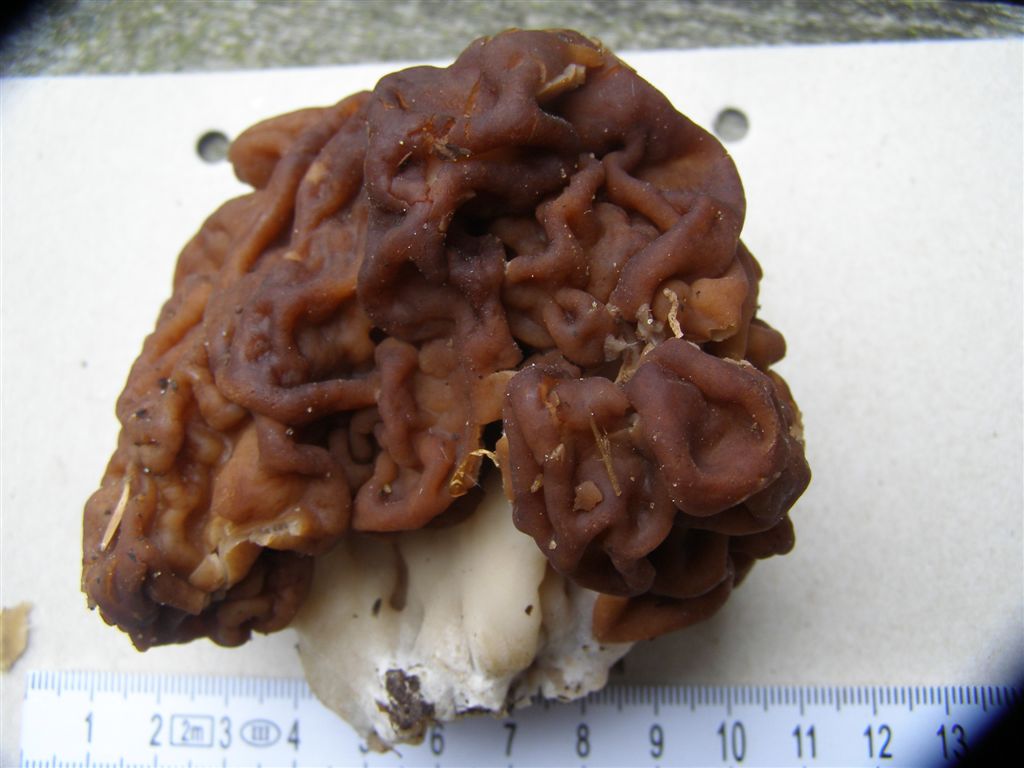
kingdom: Fungi
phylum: Ascomycota
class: Pezizomycetes
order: Pezizales
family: Discinaceae
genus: Gyromitra
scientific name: Gyromitra esculenta
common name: ægte stenmorkel
